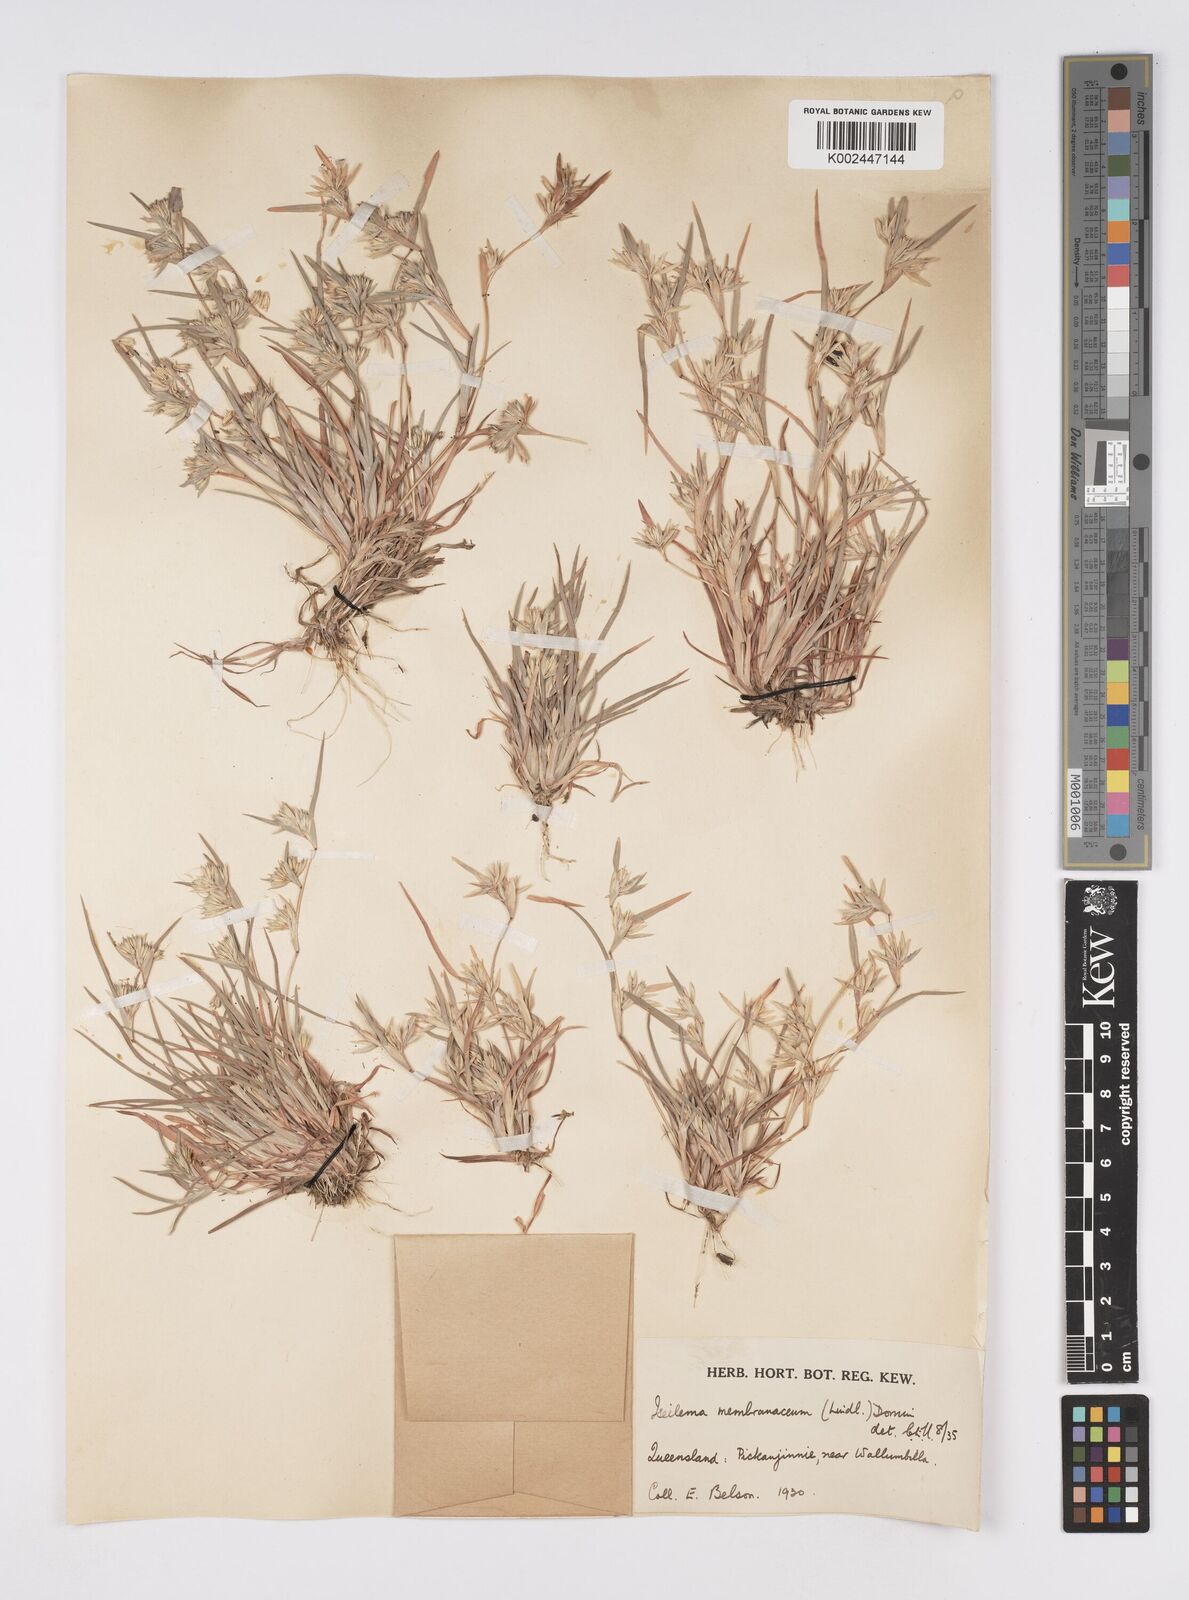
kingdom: Plantae
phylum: Tracheophyta
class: Liliopsida
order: Poales
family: Poaceae
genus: Iseilema
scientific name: Iseilema membranaceum
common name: Small flinders grass
